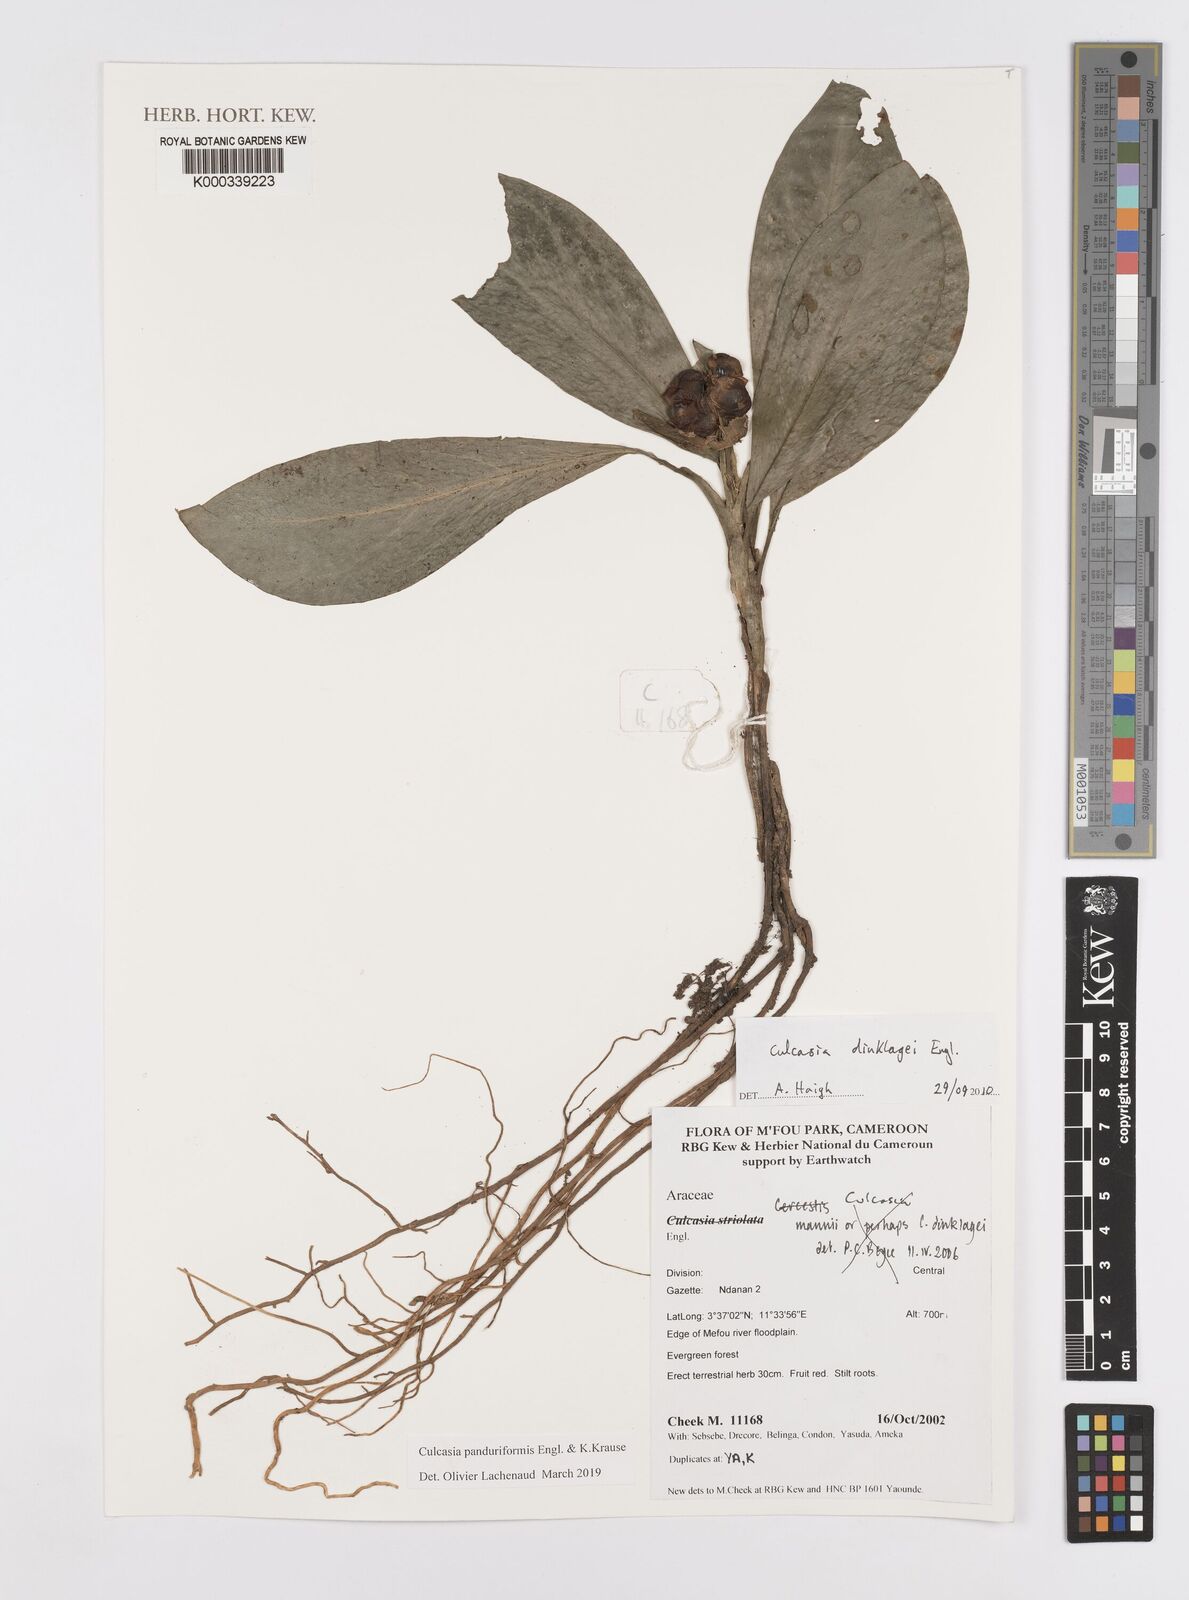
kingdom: Plantae
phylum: Tracheophyta
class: Liliopsida
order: Alismatales
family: Araceae
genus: Culcasia
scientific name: Culcasia panduriformis
